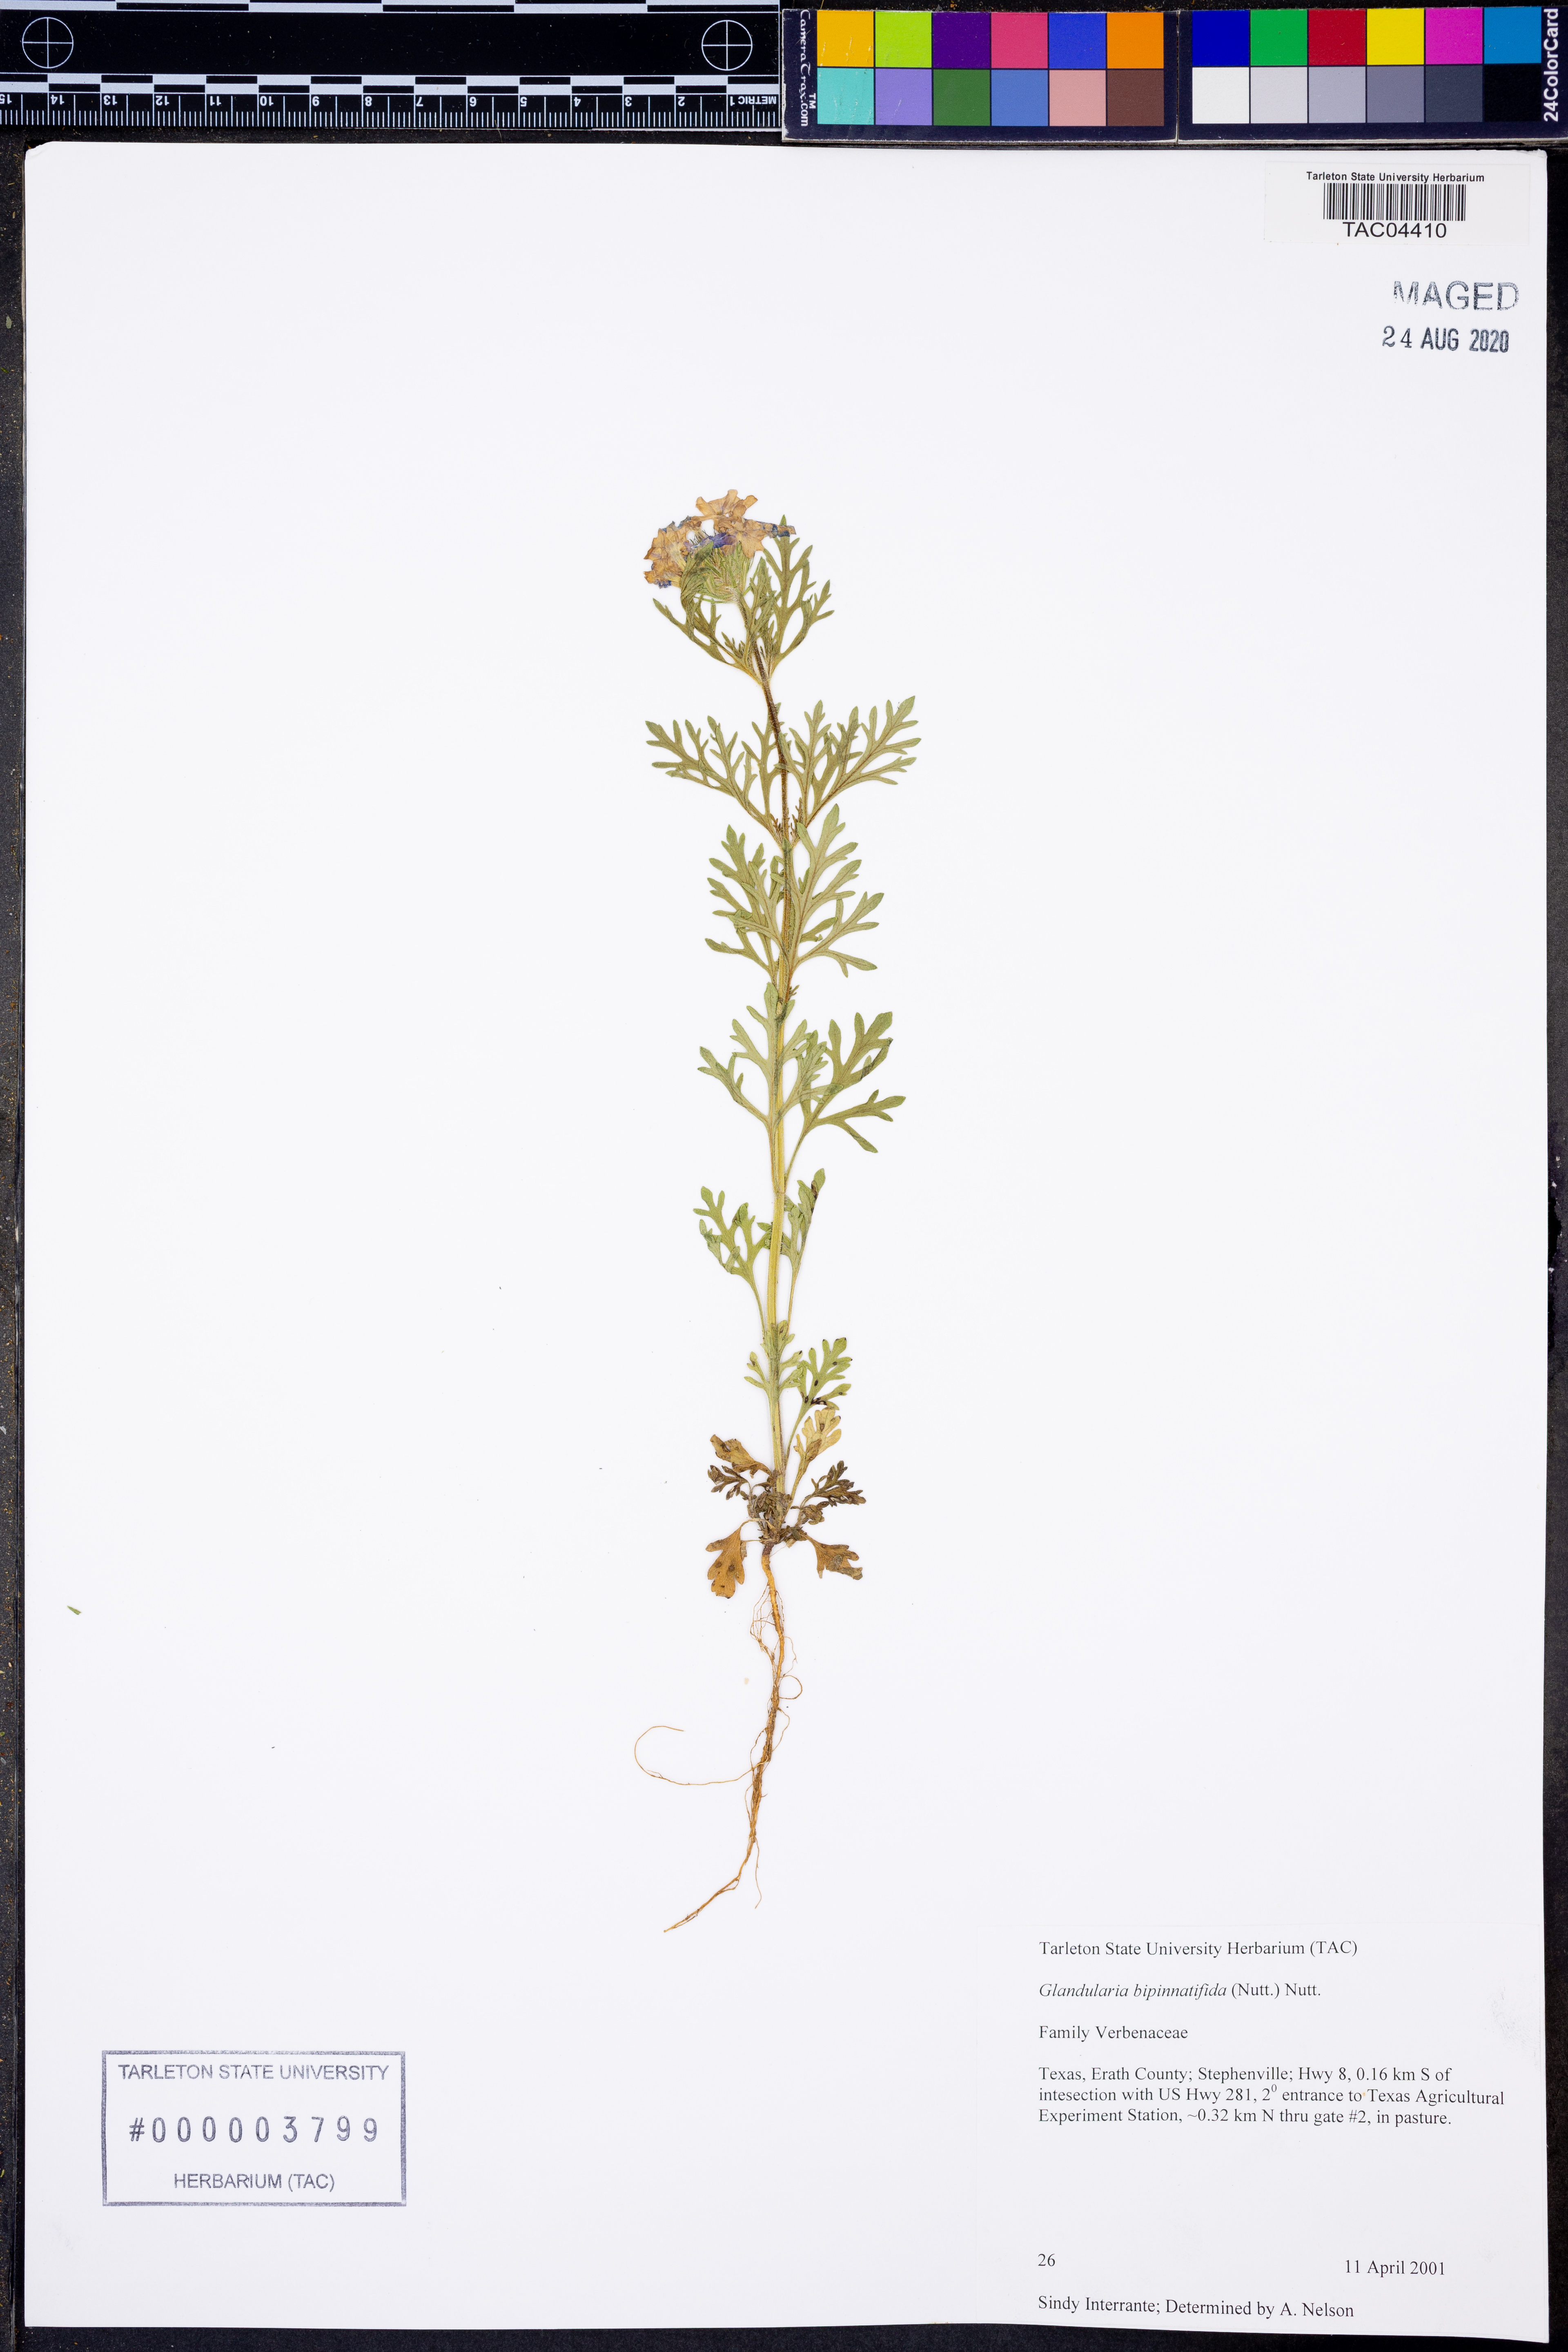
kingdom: Plantae
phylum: Tracheophyta
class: Magnoliopsida
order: Lamiales
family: Verbenaceae
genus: Verbena
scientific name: Verbena bipinnatifida
